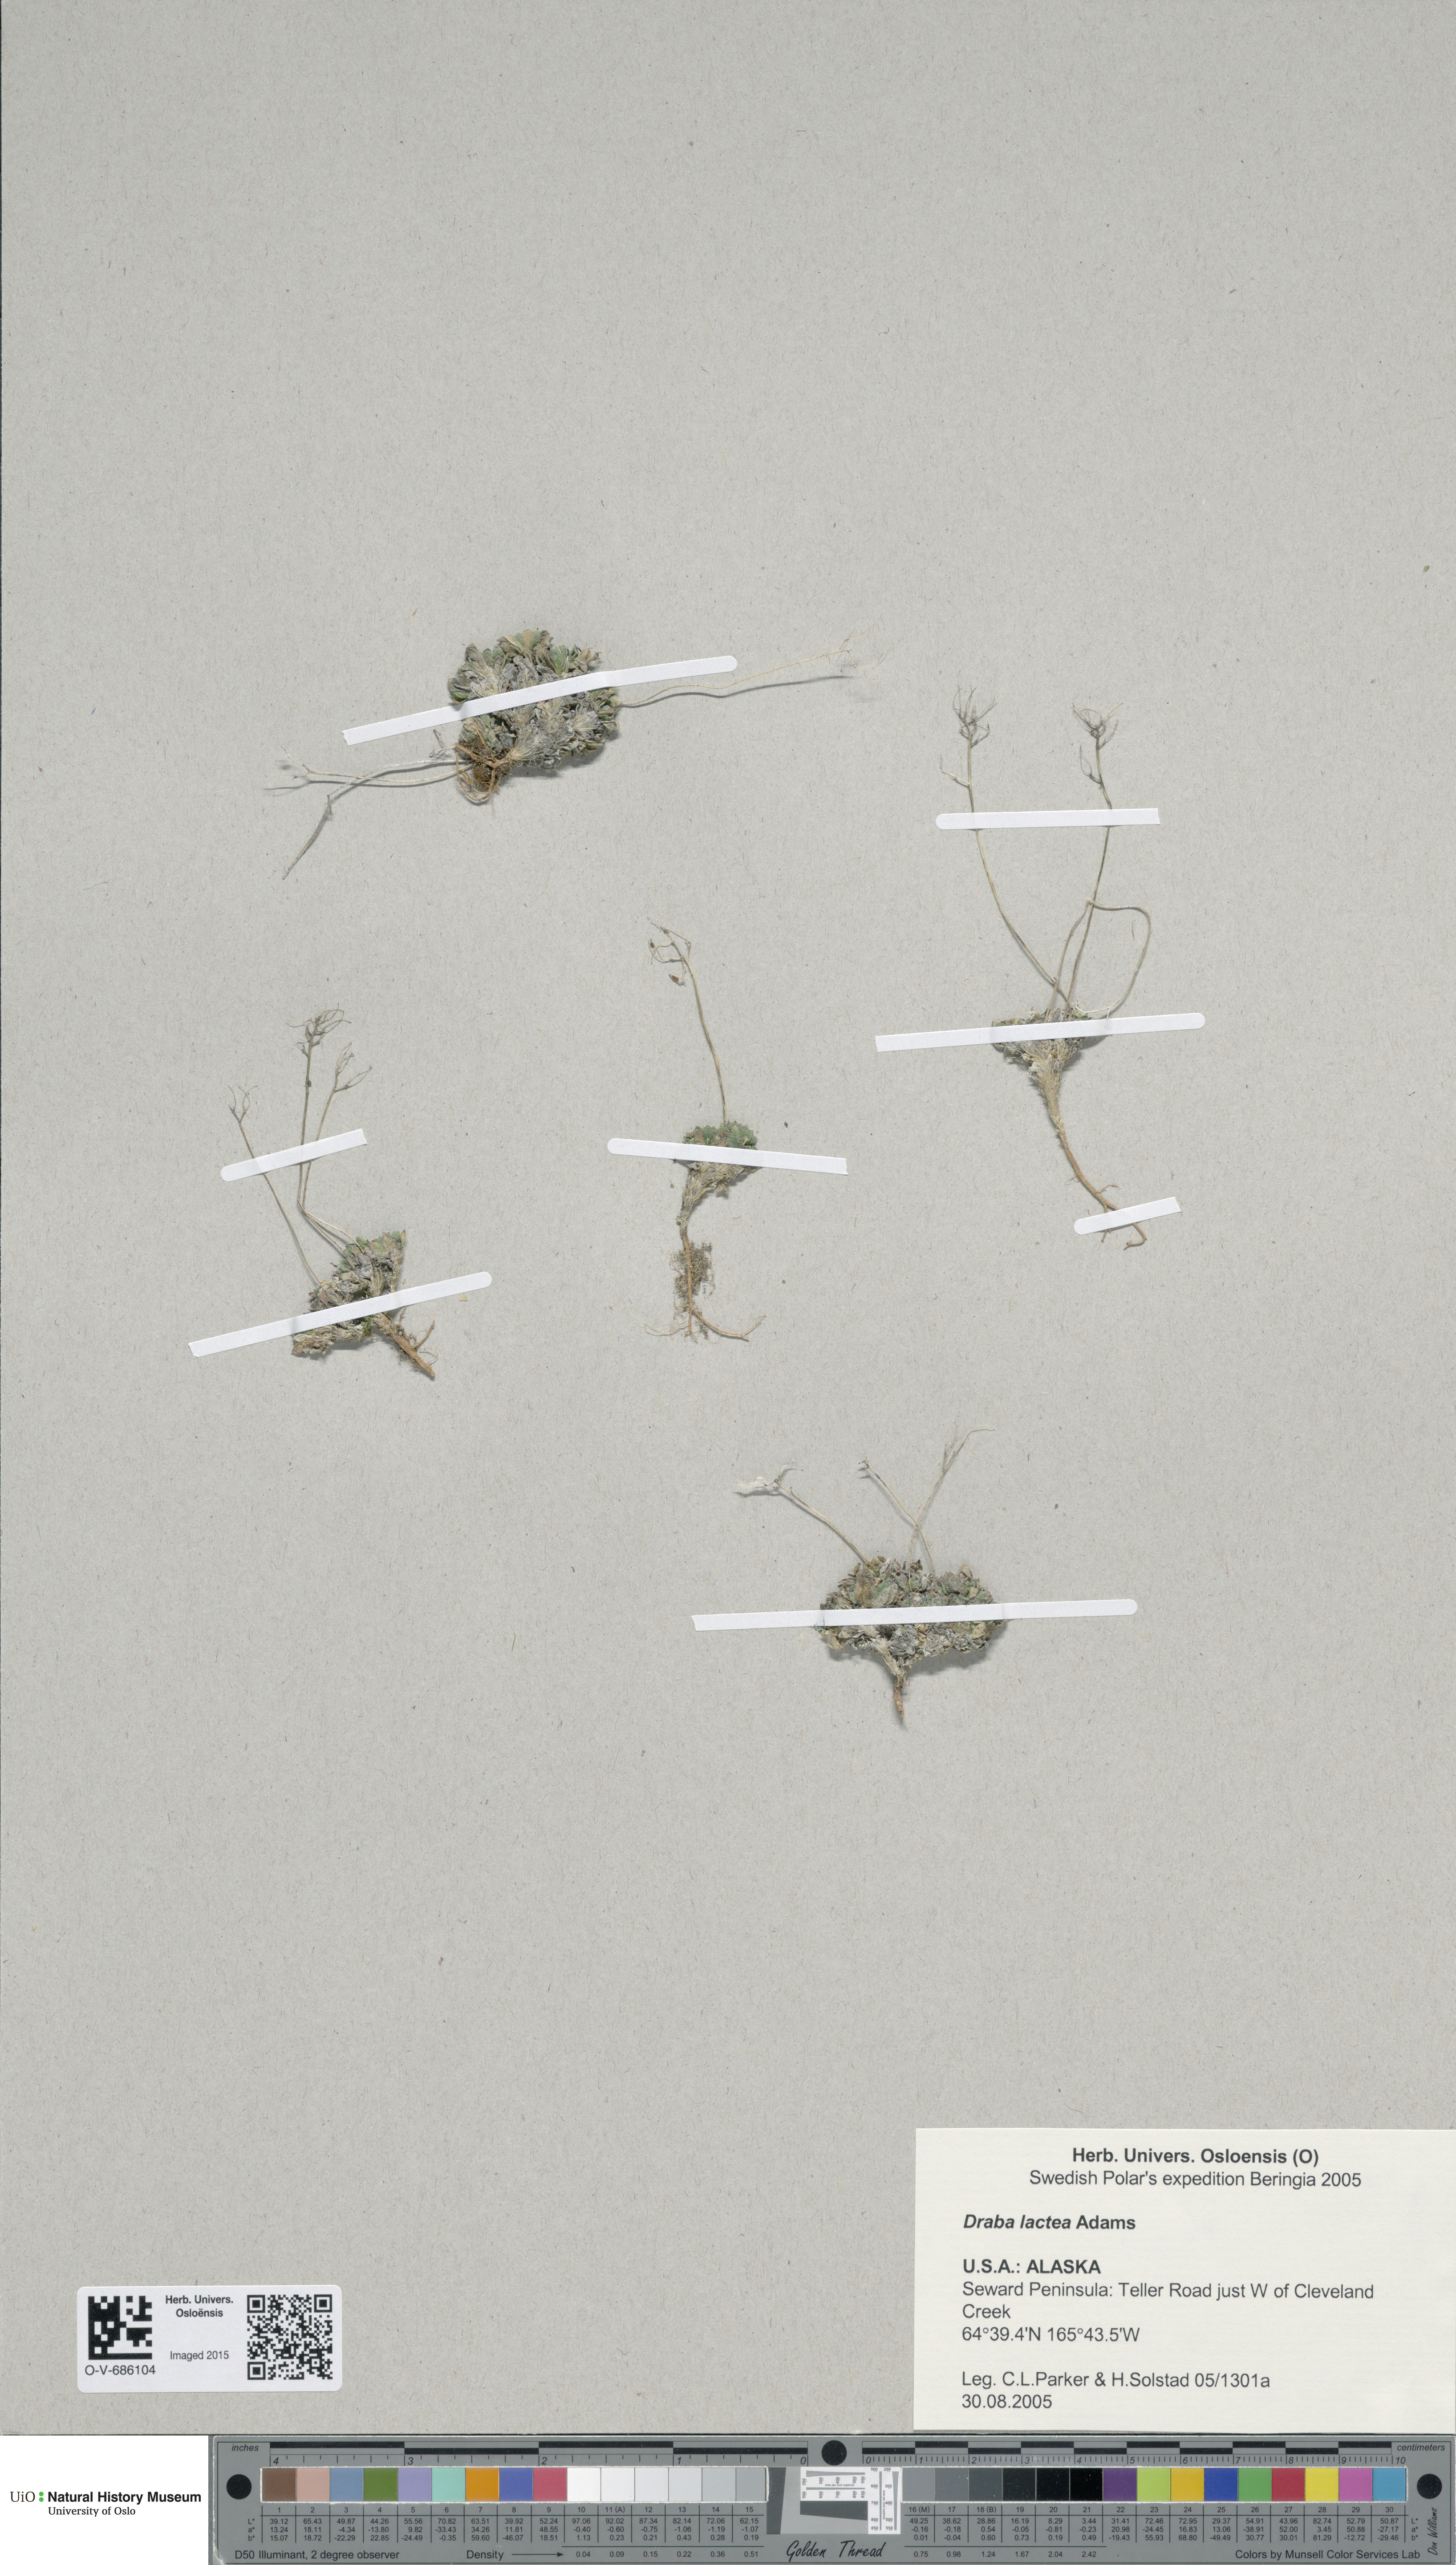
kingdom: Plantae
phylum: Tracheophyta
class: Magnoliopsida
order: Brassicales
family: Brassicaceae
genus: Draba
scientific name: Draba lactea
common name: Milky draba
